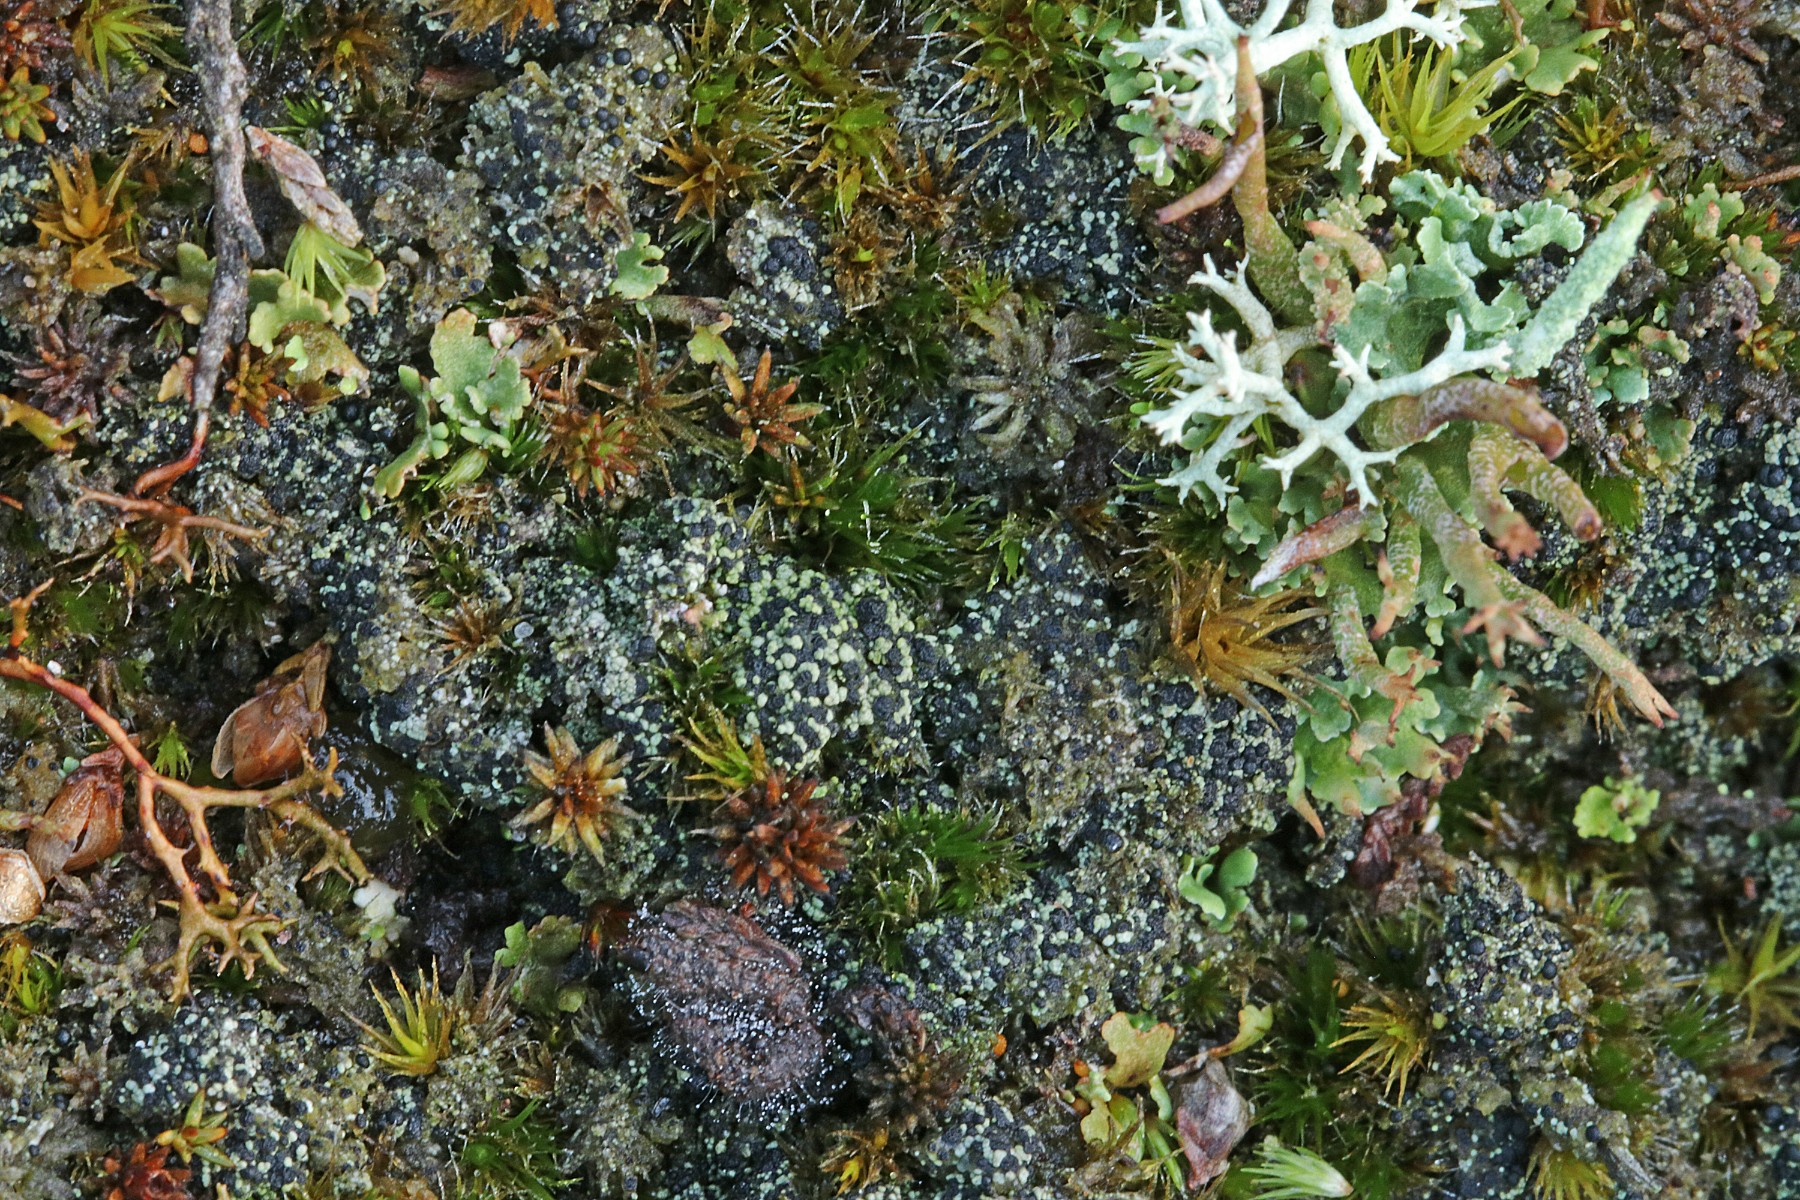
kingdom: Fungi
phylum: Ascomycota
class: Lecanoromycetes
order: Lecanorales
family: Byssolomataceae
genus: Micarea
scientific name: Micarea lignaria
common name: tørve-knaplav
